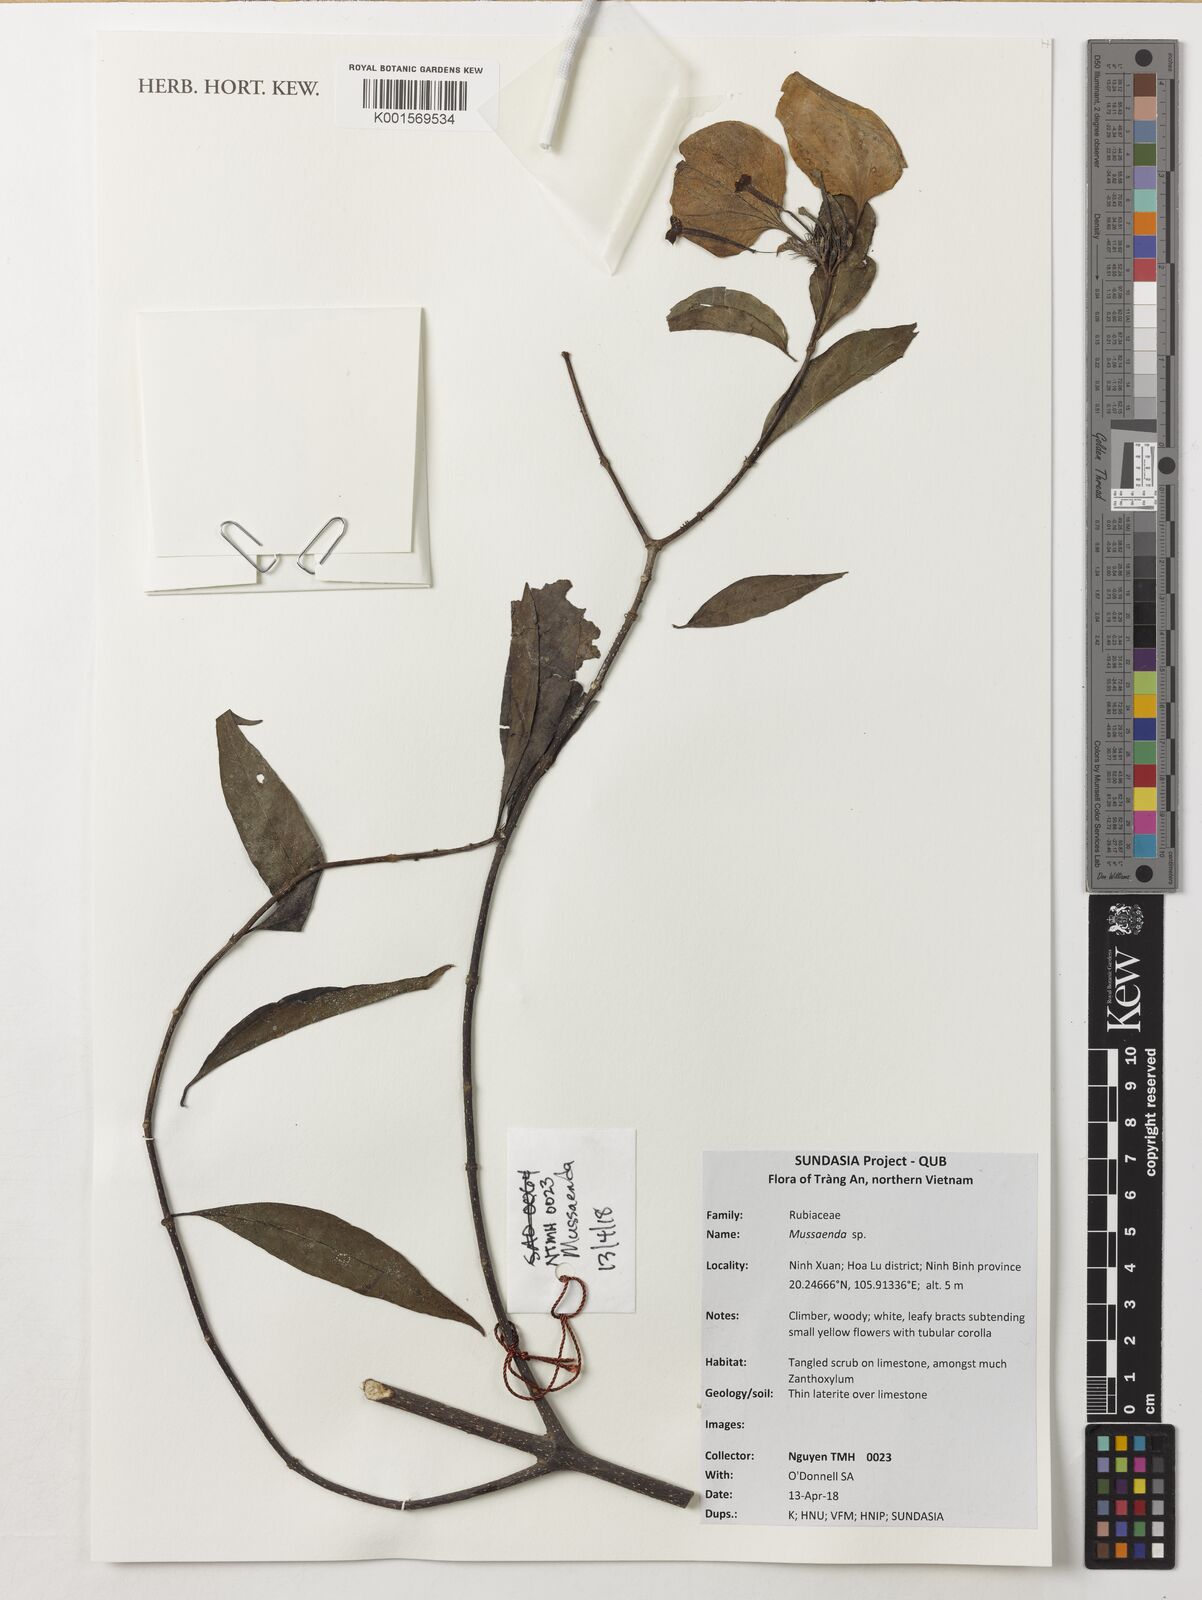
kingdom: Plantae
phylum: Tracheophyta
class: Magnoliopsida
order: Gentianales
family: Rubiaceae
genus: Mussaenda
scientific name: Mussaenda
